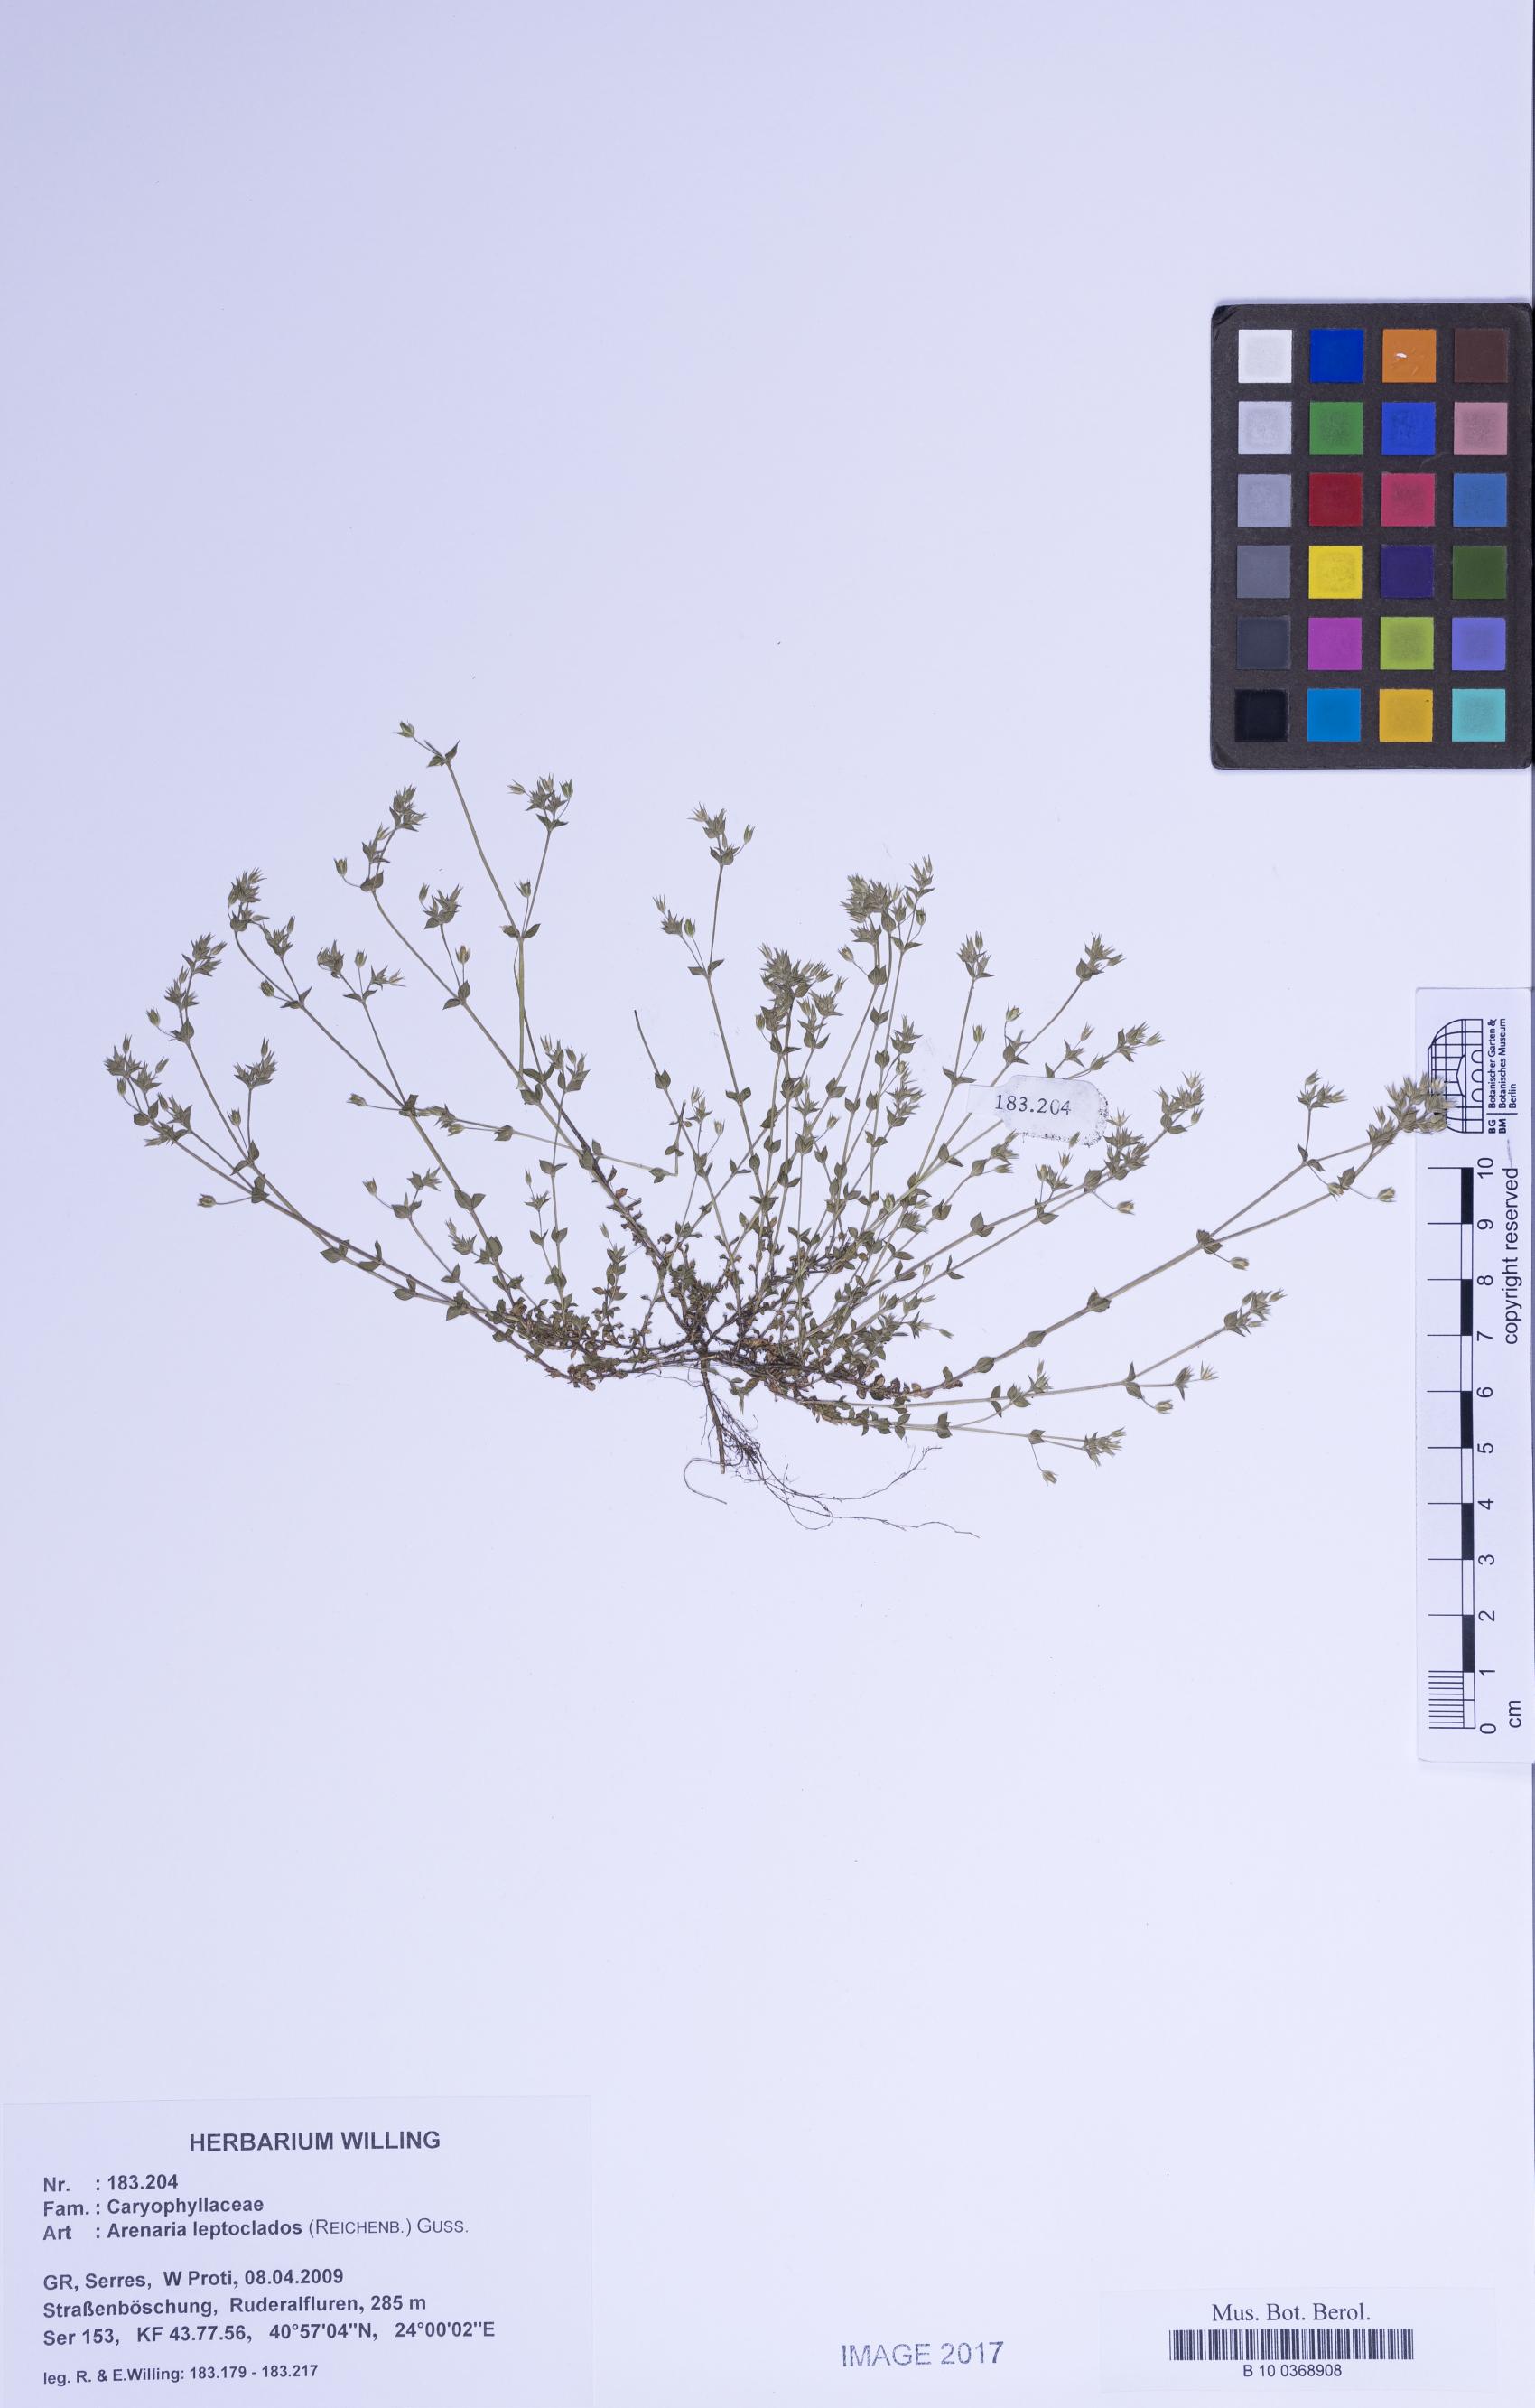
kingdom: Plantae
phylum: Tracheophyta
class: Magnoliopsida
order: Caryophyllales
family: Caryophyllaceae
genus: Arenaria
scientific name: Arenaria leptoclados
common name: Thyme-leaved sandwort
